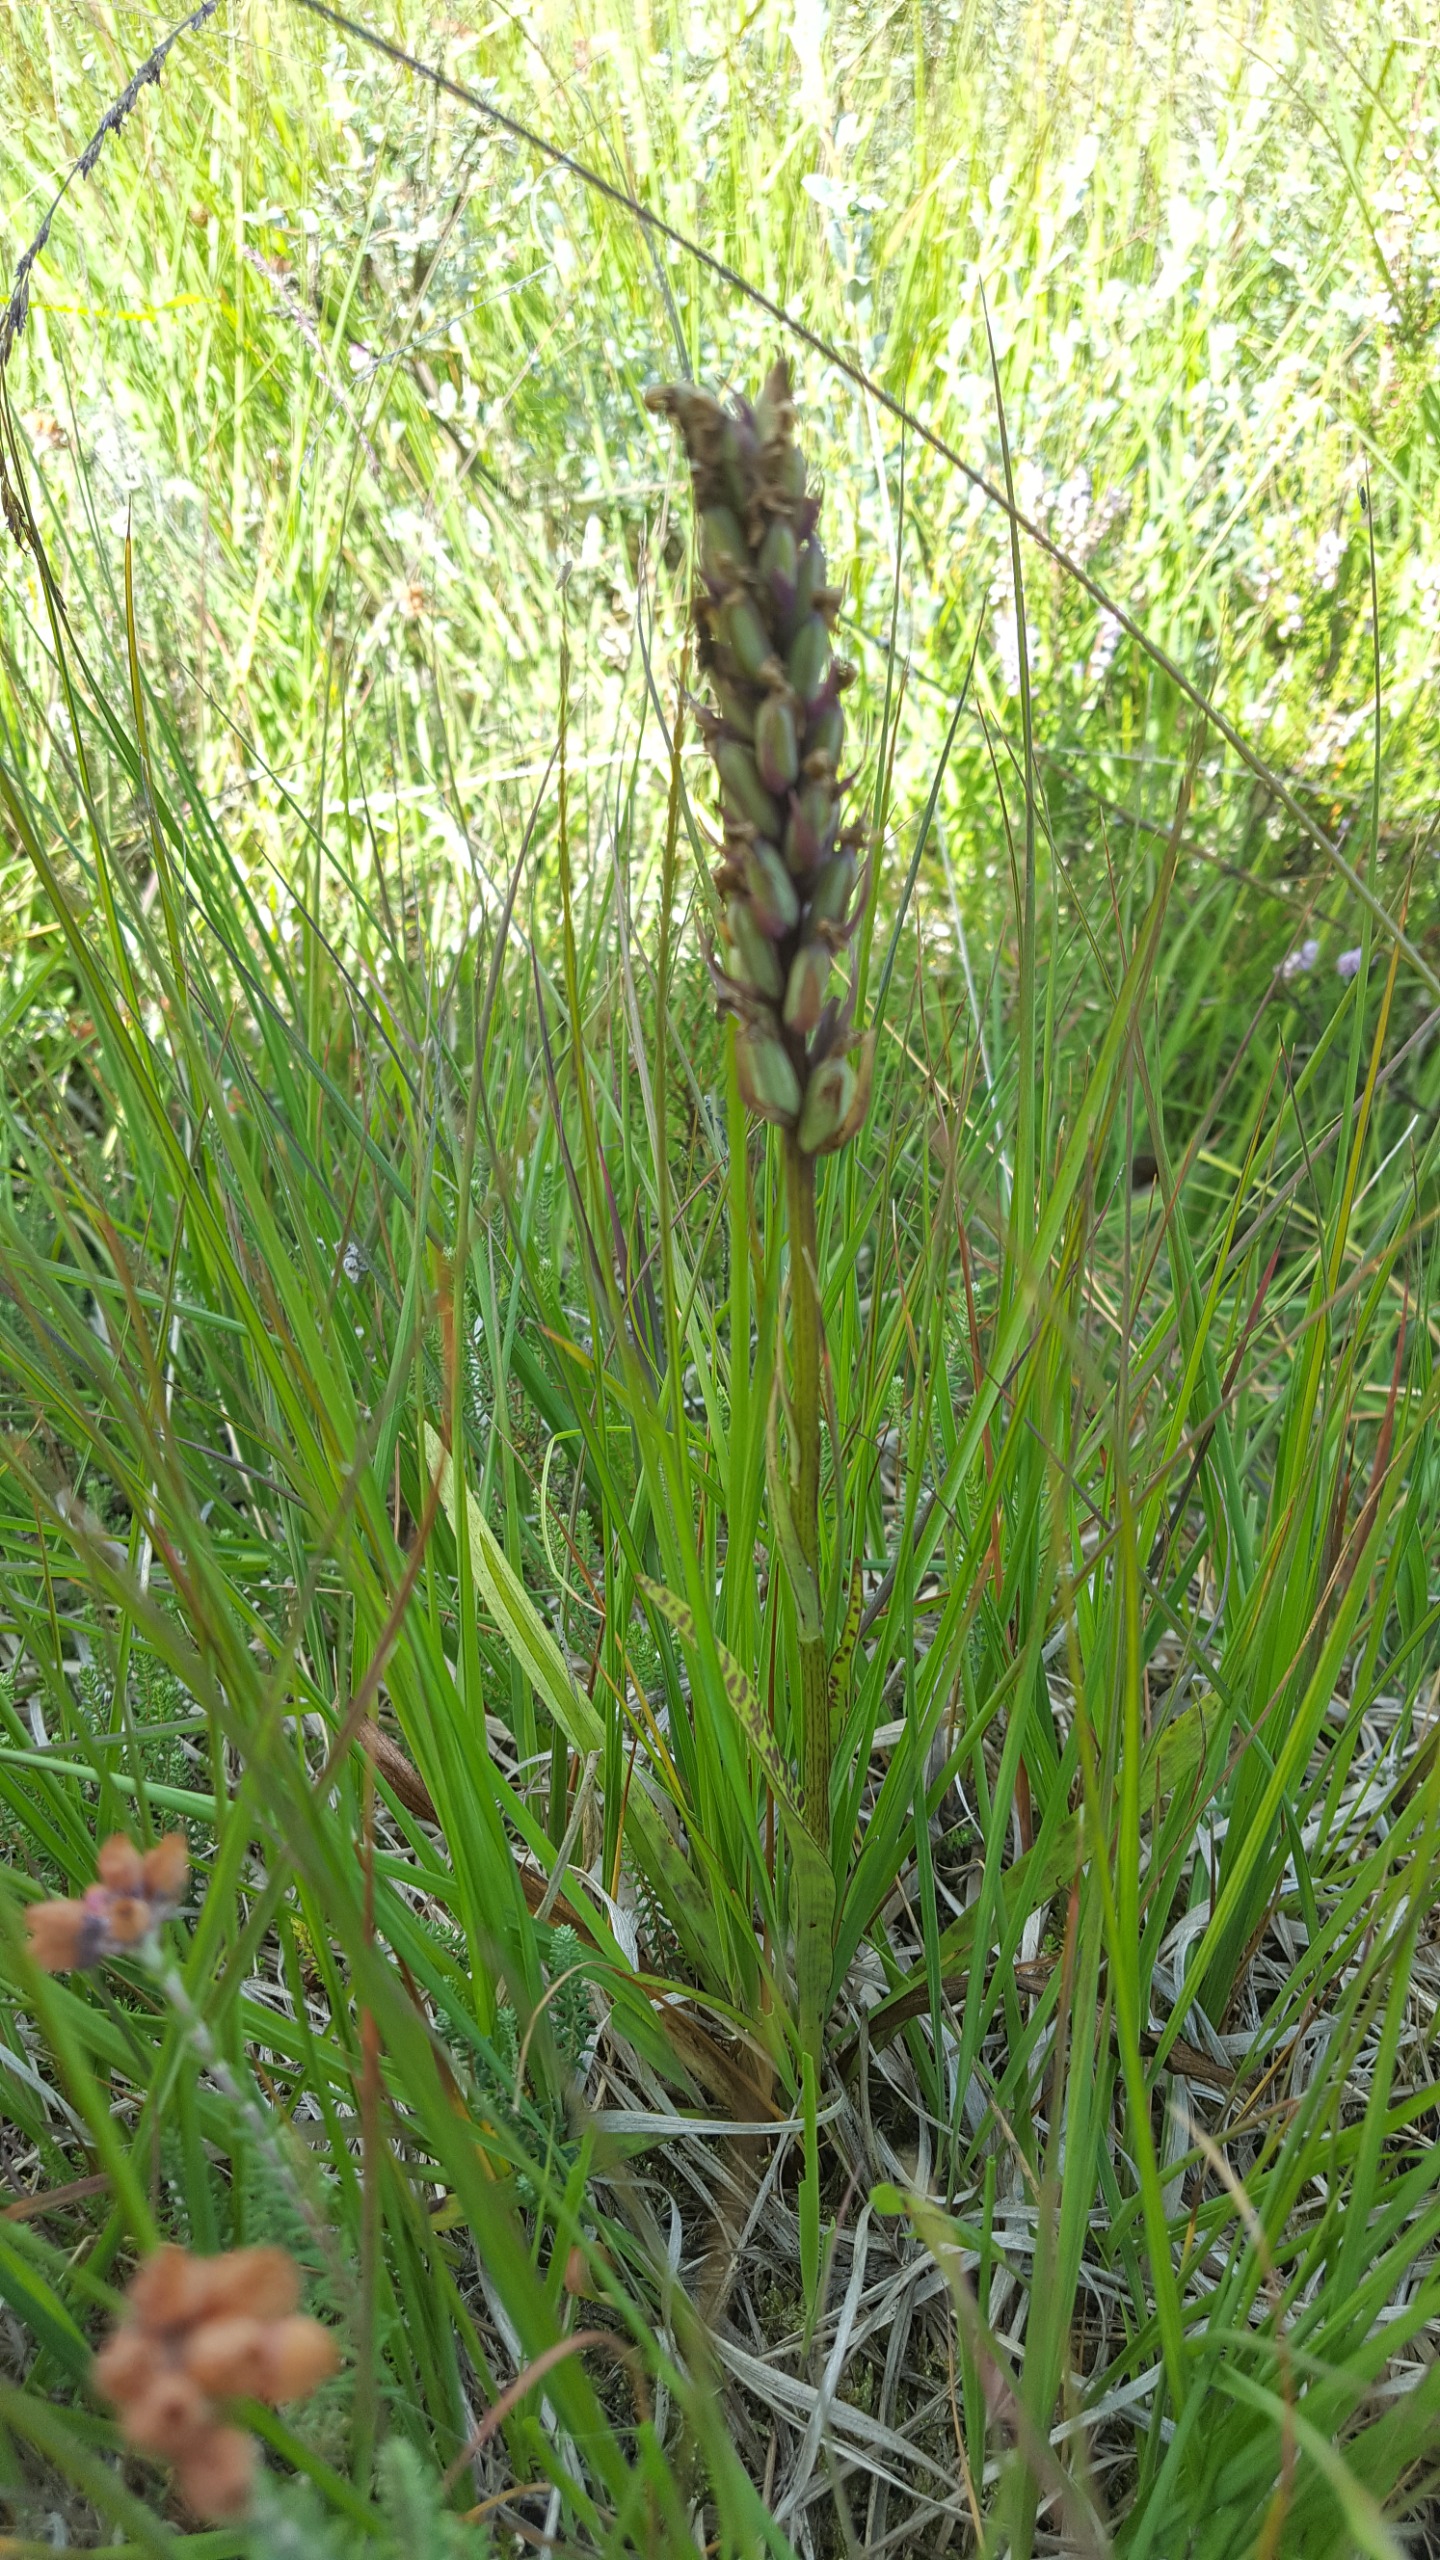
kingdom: Plantae
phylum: Tracheophyta
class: Liliopsida
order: Asparagales
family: Orchidaceae
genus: Dactylorhiza
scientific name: Dactylorhiza maculata
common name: Plettet gøgeurt
